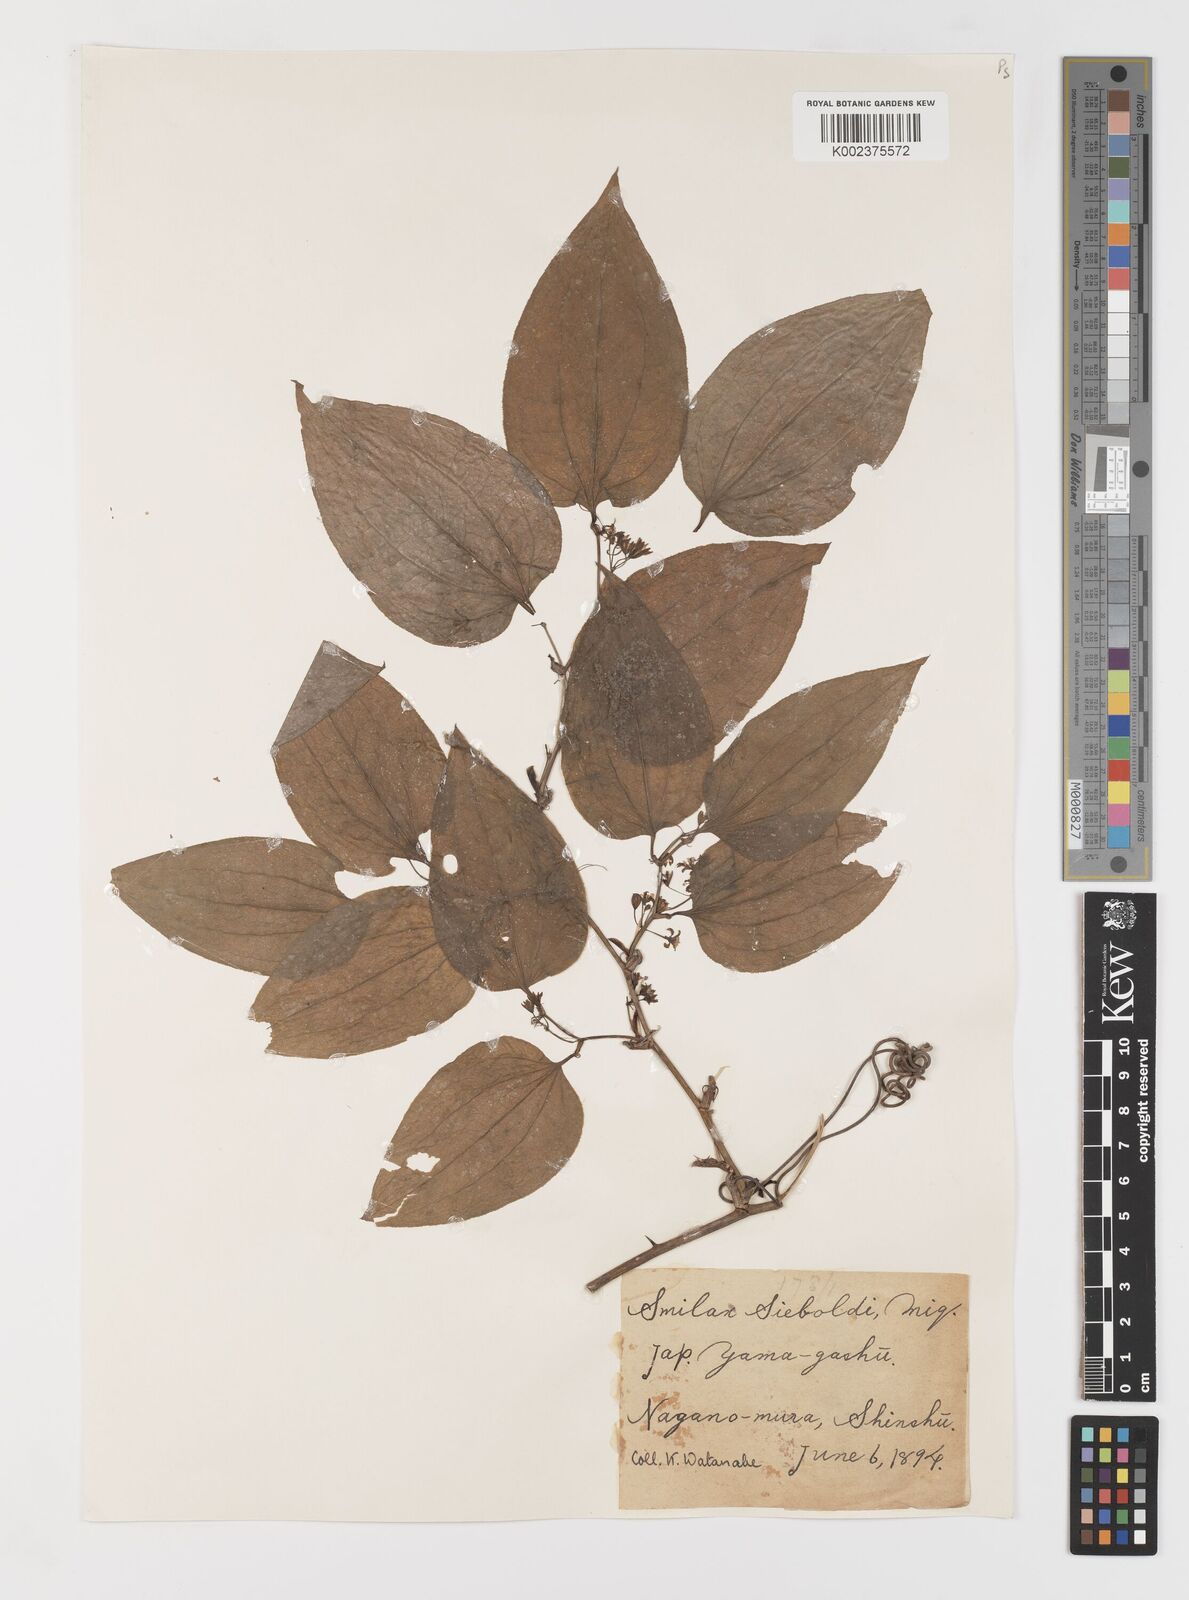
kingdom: Plantae
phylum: Tracheophyta
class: Liliopsida
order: Liliales
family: Smilacaceae
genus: Smilax
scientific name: Smilax sieboldii
